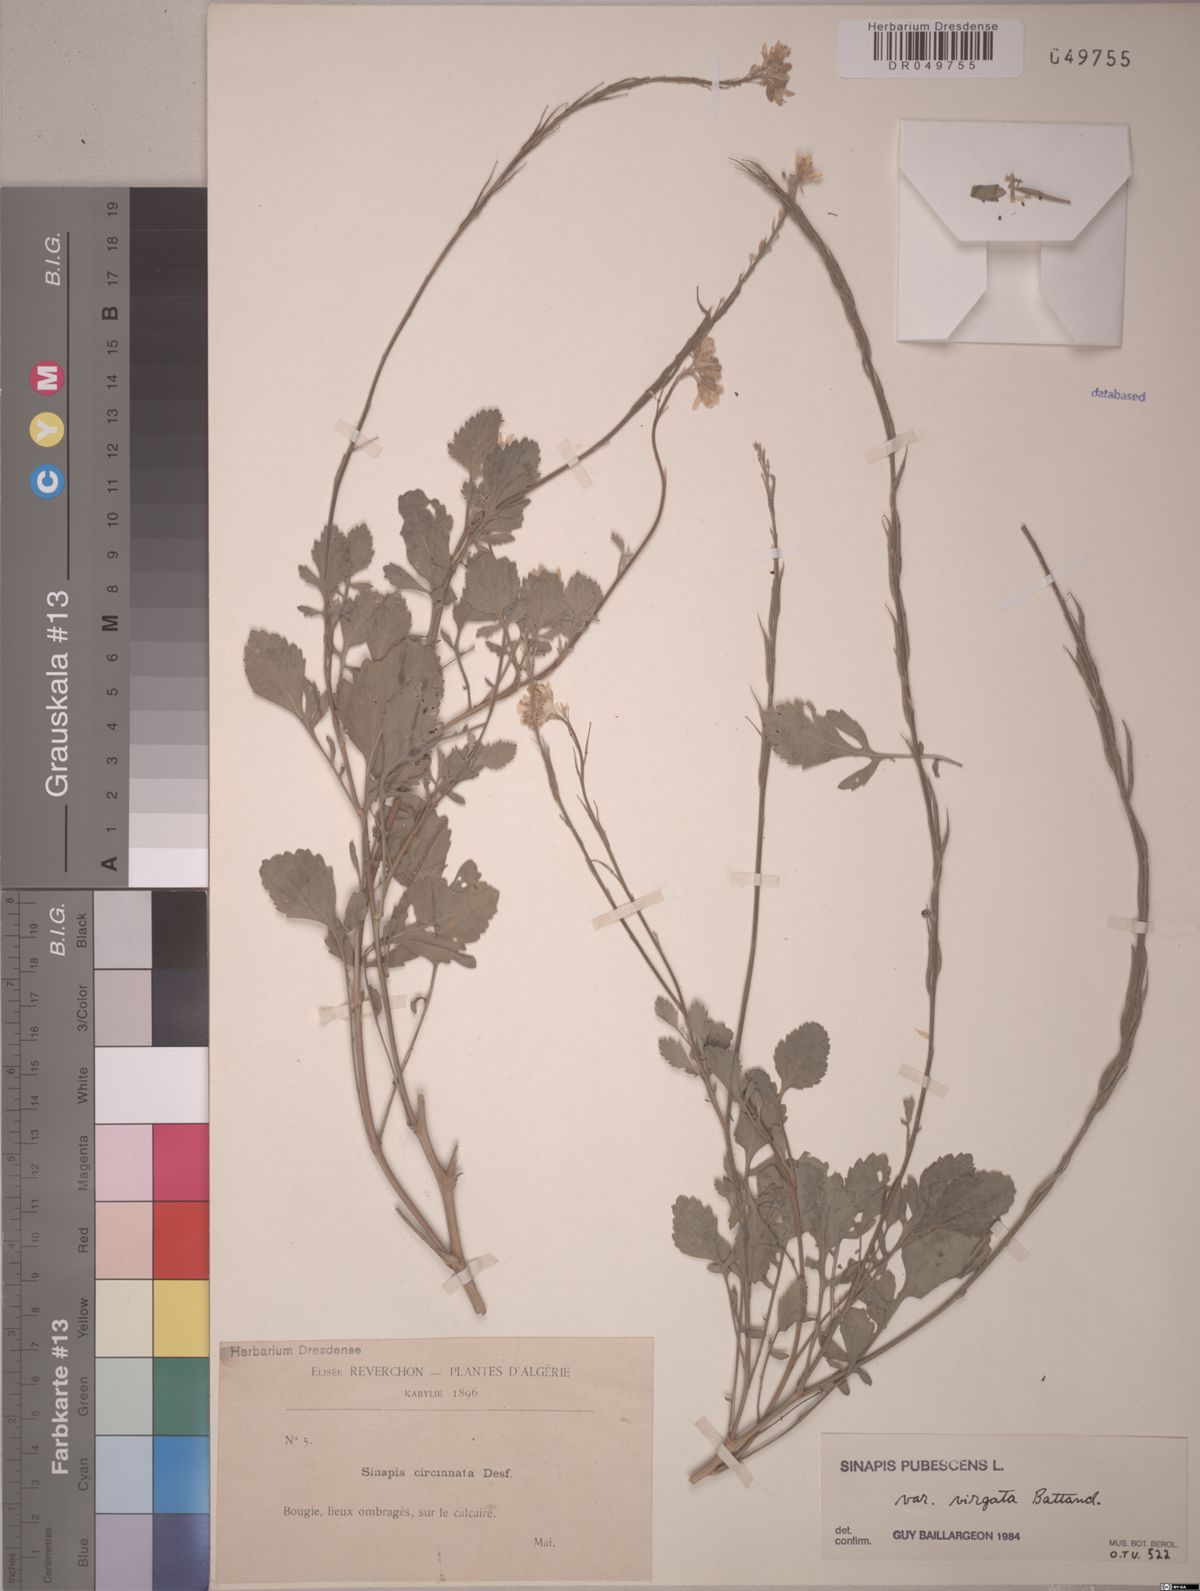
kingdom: Plantae
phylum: Tracheophyta
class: Magnoliopsida
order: Brassicales
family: Brassicaceae
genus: Sinapis
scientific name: Sinapis pubescens
